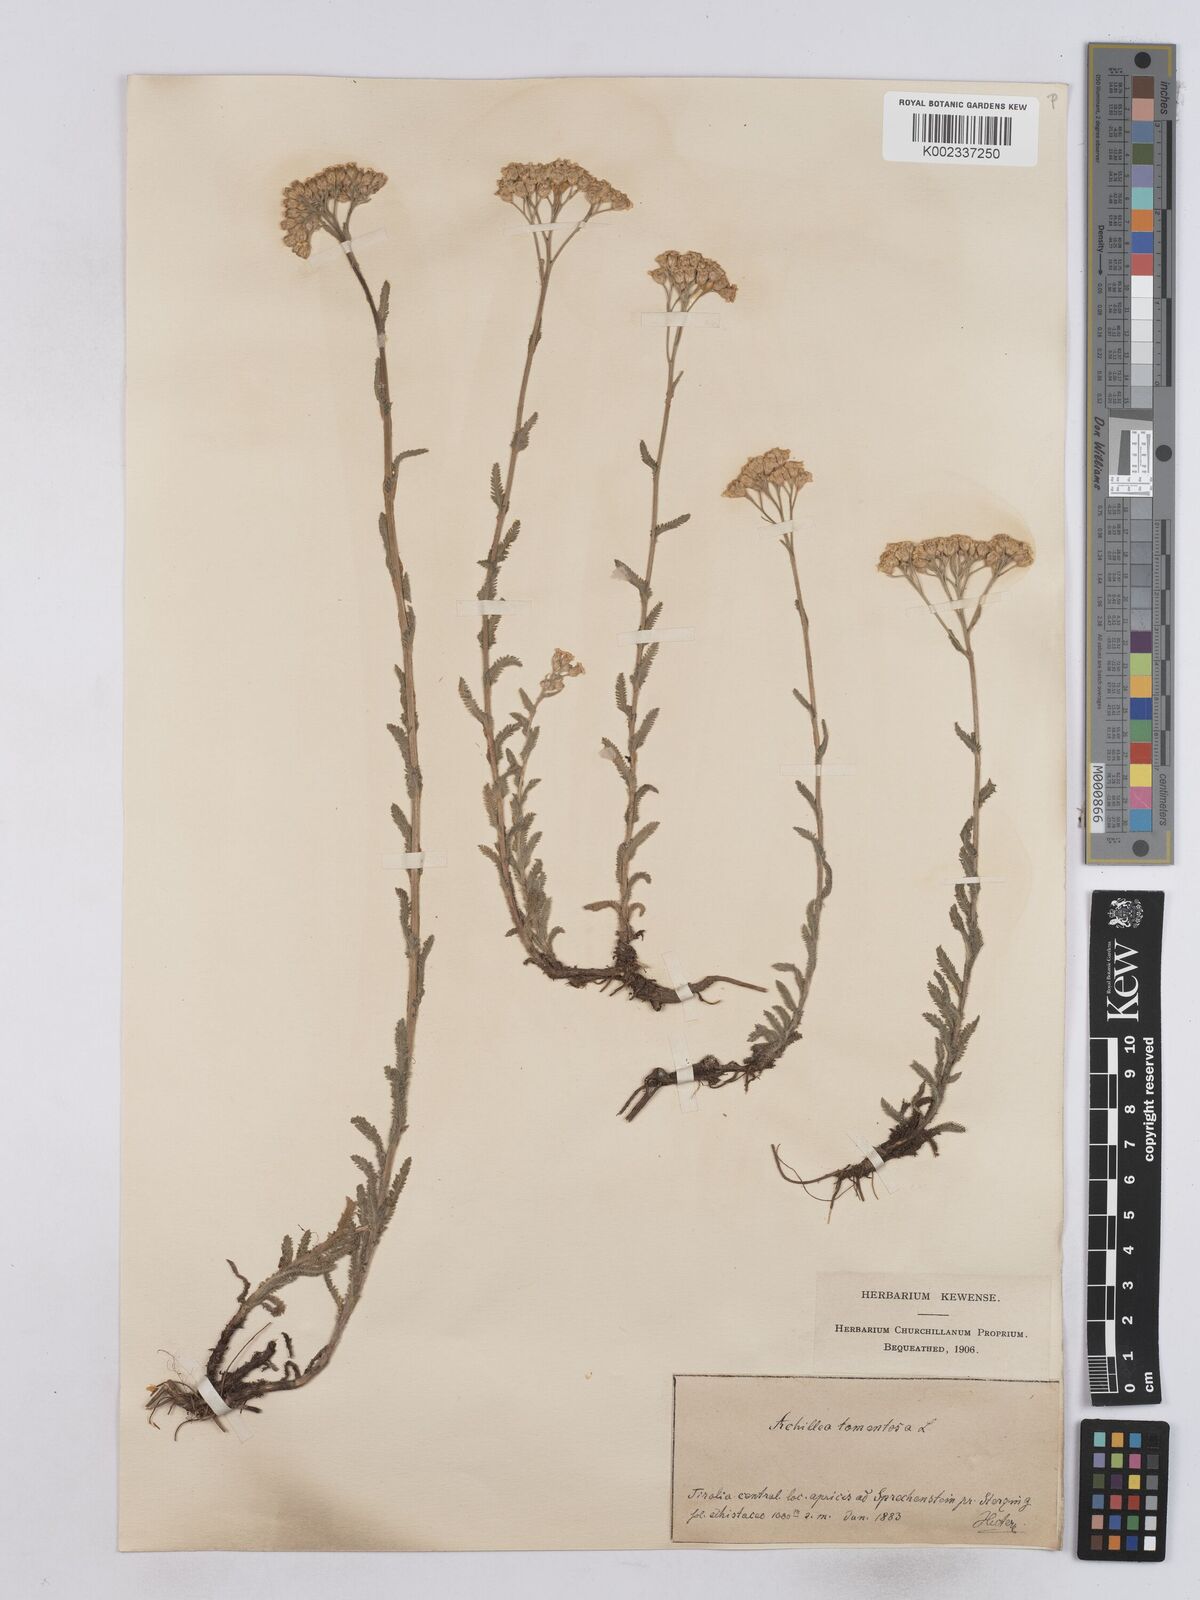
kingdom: Plantae
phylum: Tracheophyta
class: Magnoliopsida
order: Asterales
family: Asteraceae
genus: Achillea
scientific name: Achillea tomentosa
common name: Yellow milfoil
